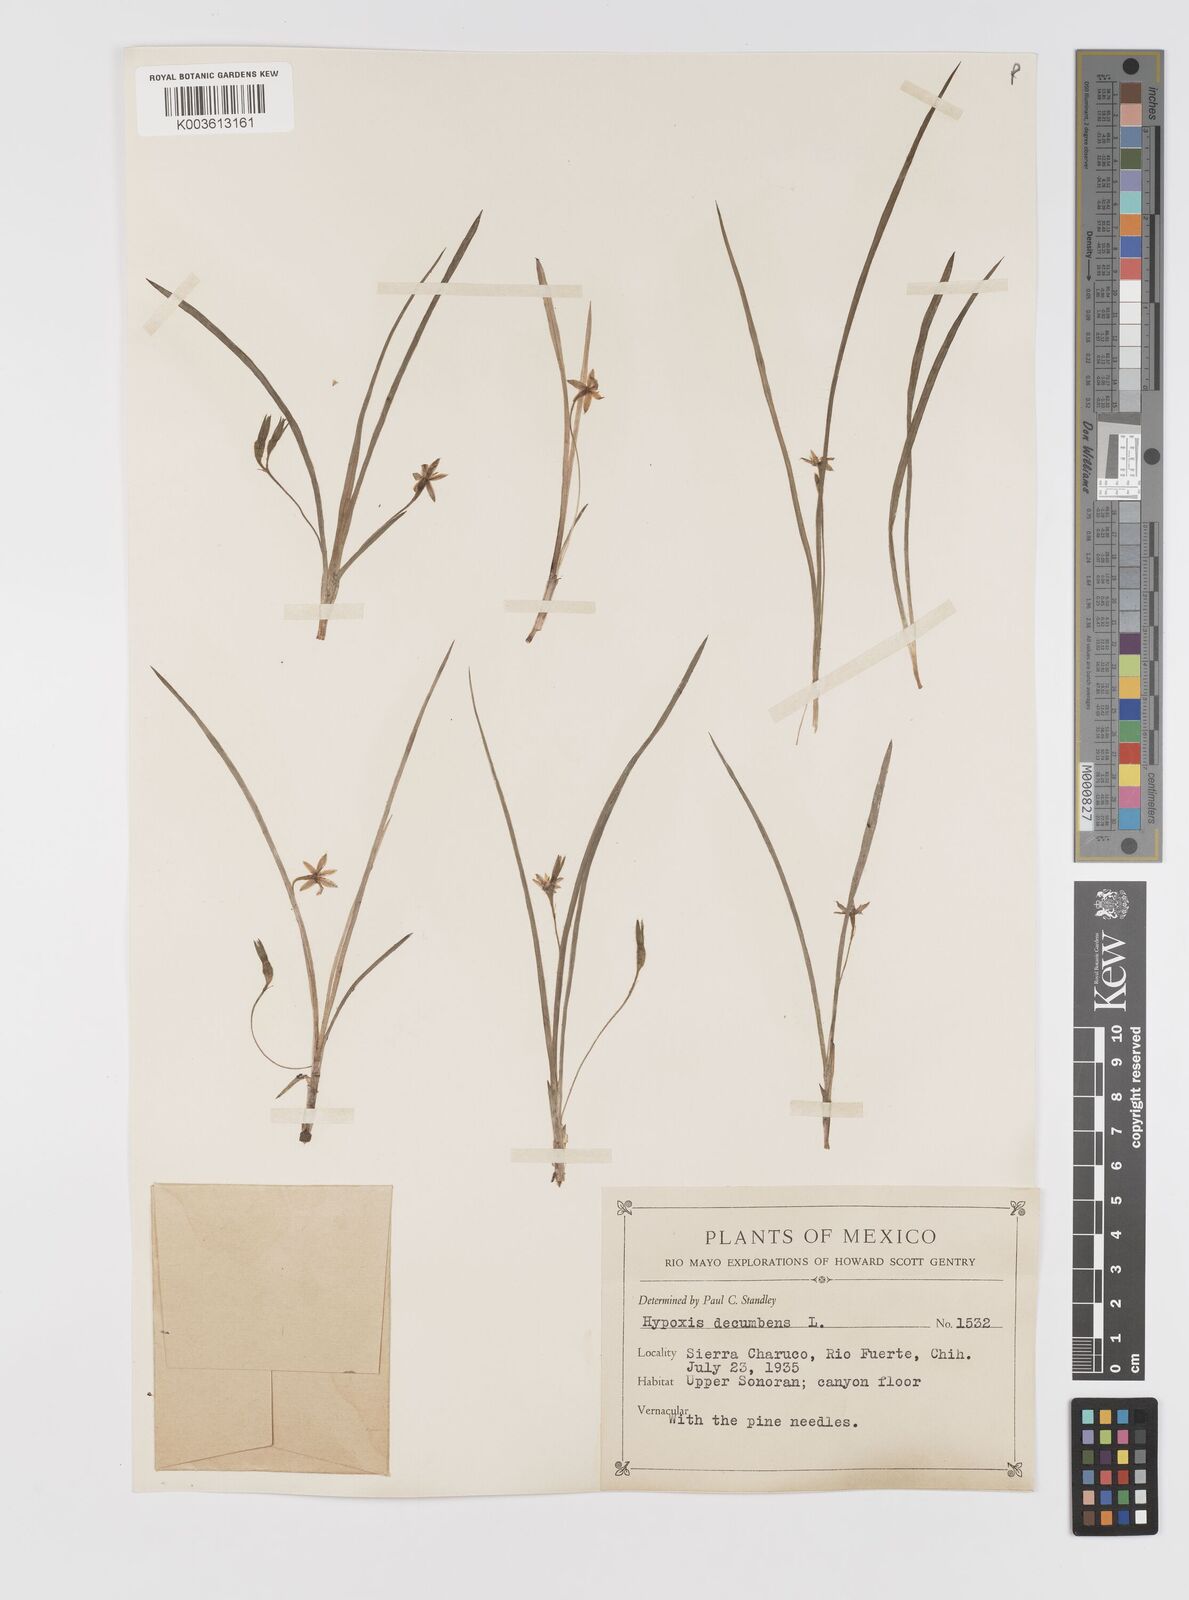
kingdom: Plantae
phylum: Tracheophyta
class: Liliopsida
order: Asparagales
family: Hypoxidaceae
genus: Hypoxis
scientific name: Hypoxis decumbens
